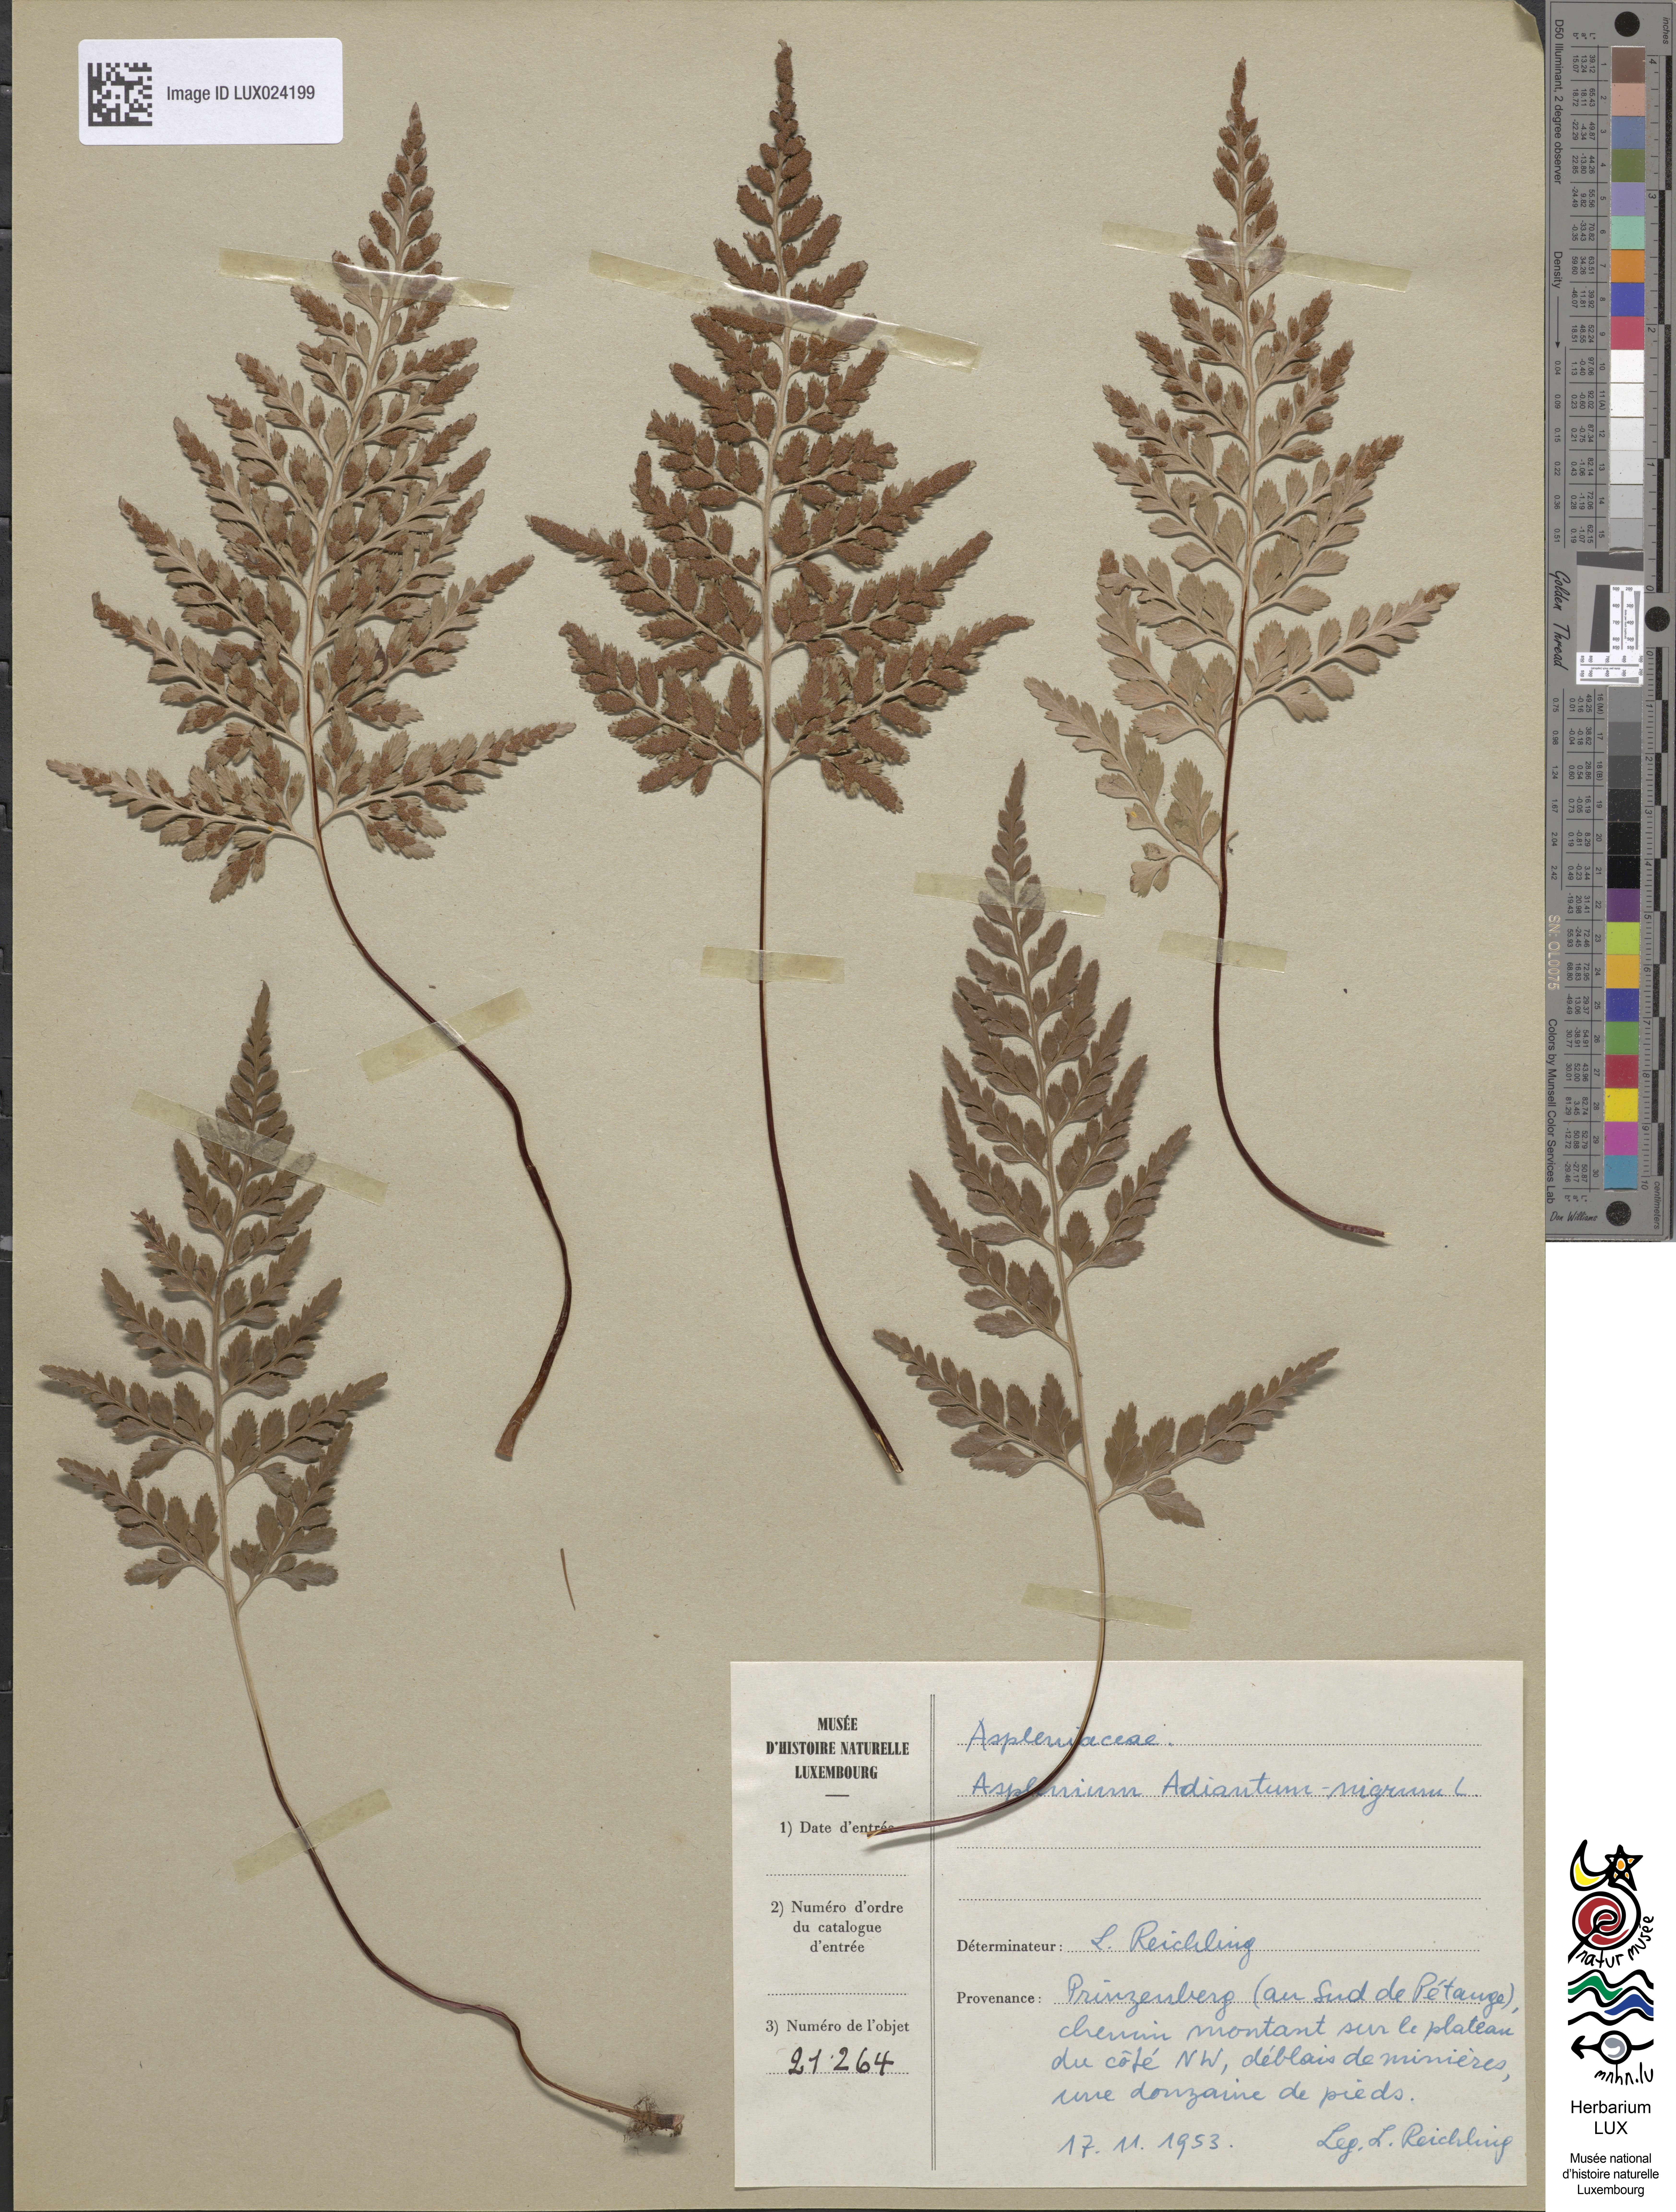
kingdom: Plantae
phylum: Tracheophyta
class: Polypodiopsida
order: Polypodiales
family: Aspleniaceae
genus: Asplenium
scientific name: Asplenium adiantum-nigrum
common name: Black spleenwort
